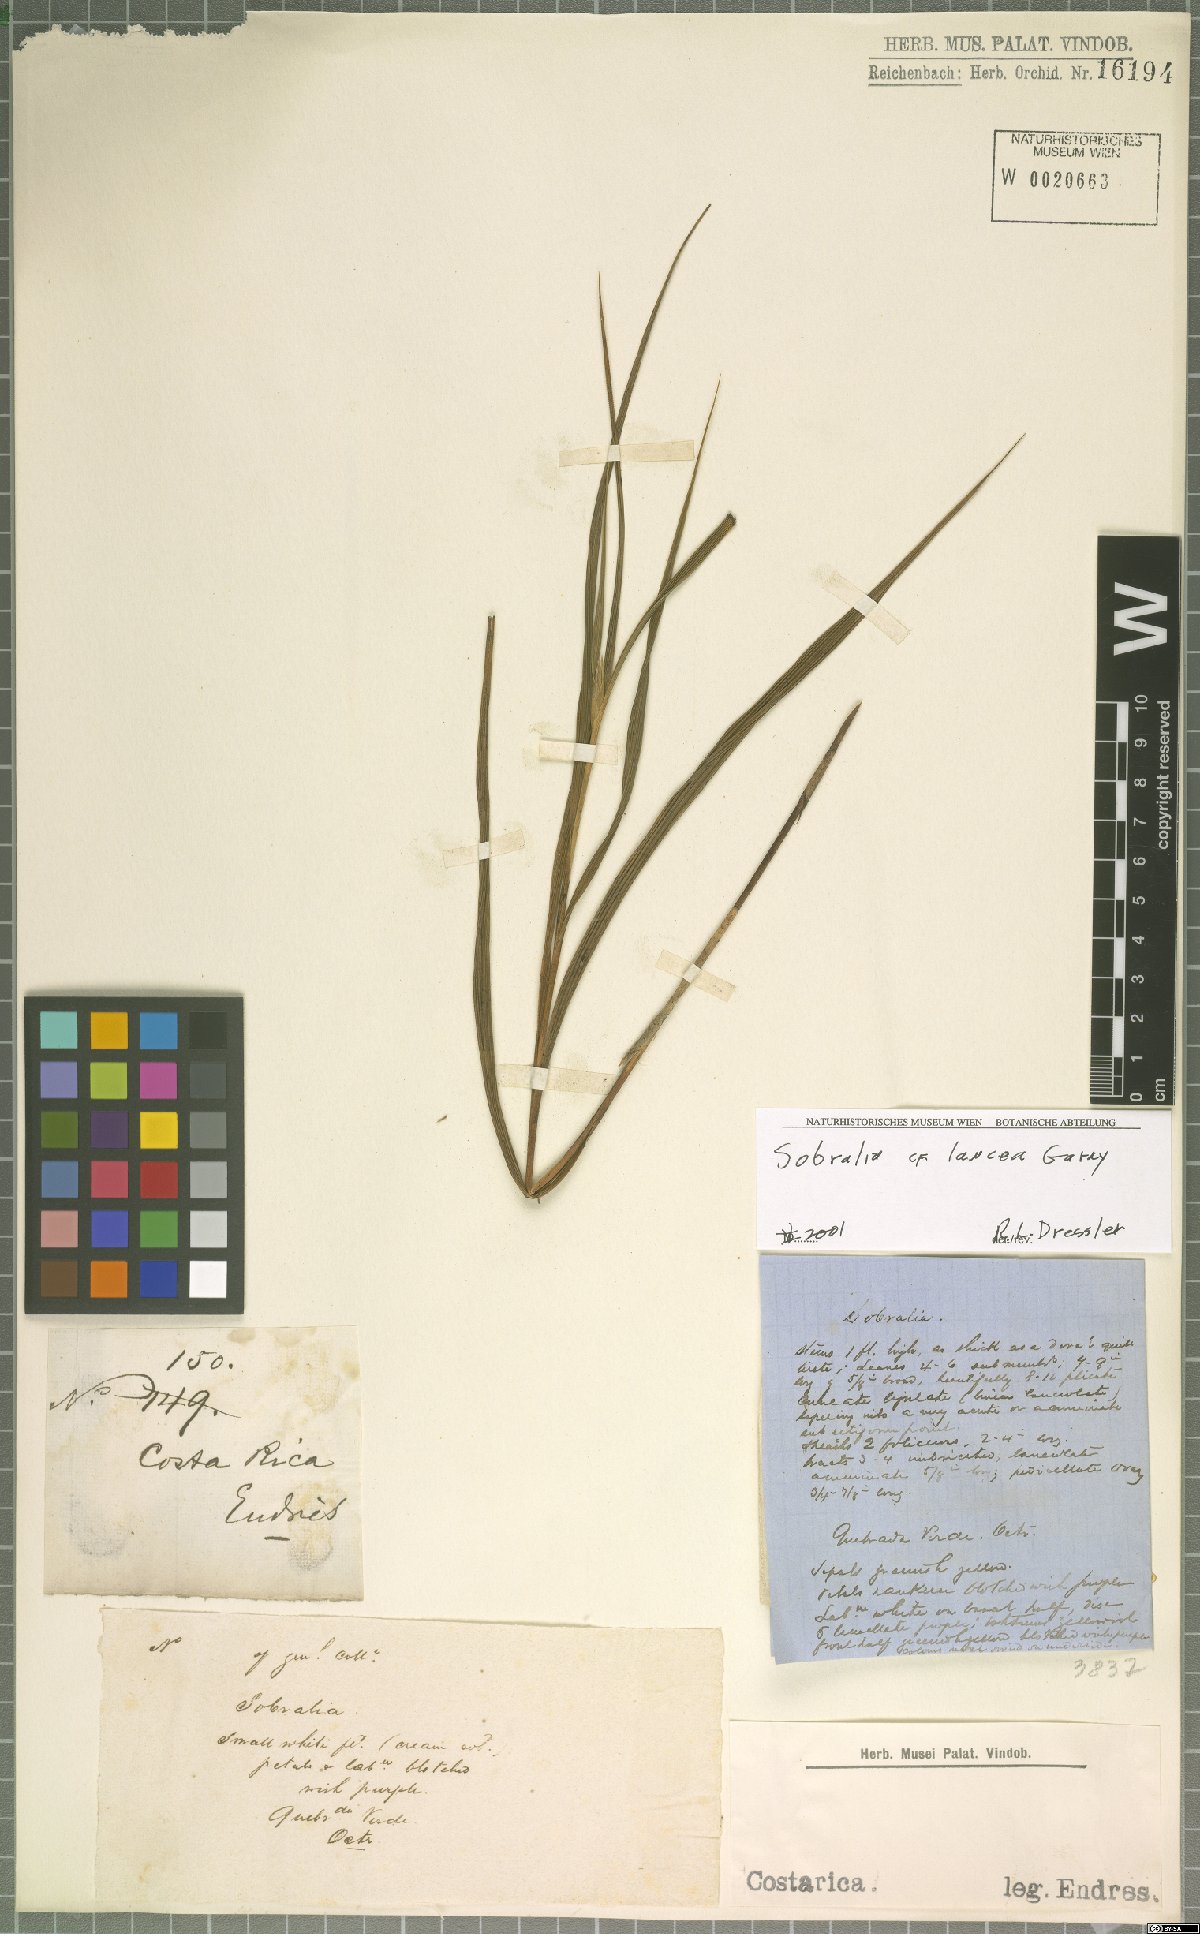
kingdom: Plantae
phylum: Tracheophyta
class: Liliopsida
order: Asparagales
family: Orchidaceae
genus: Sobralia
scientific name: Sobralia lancea
